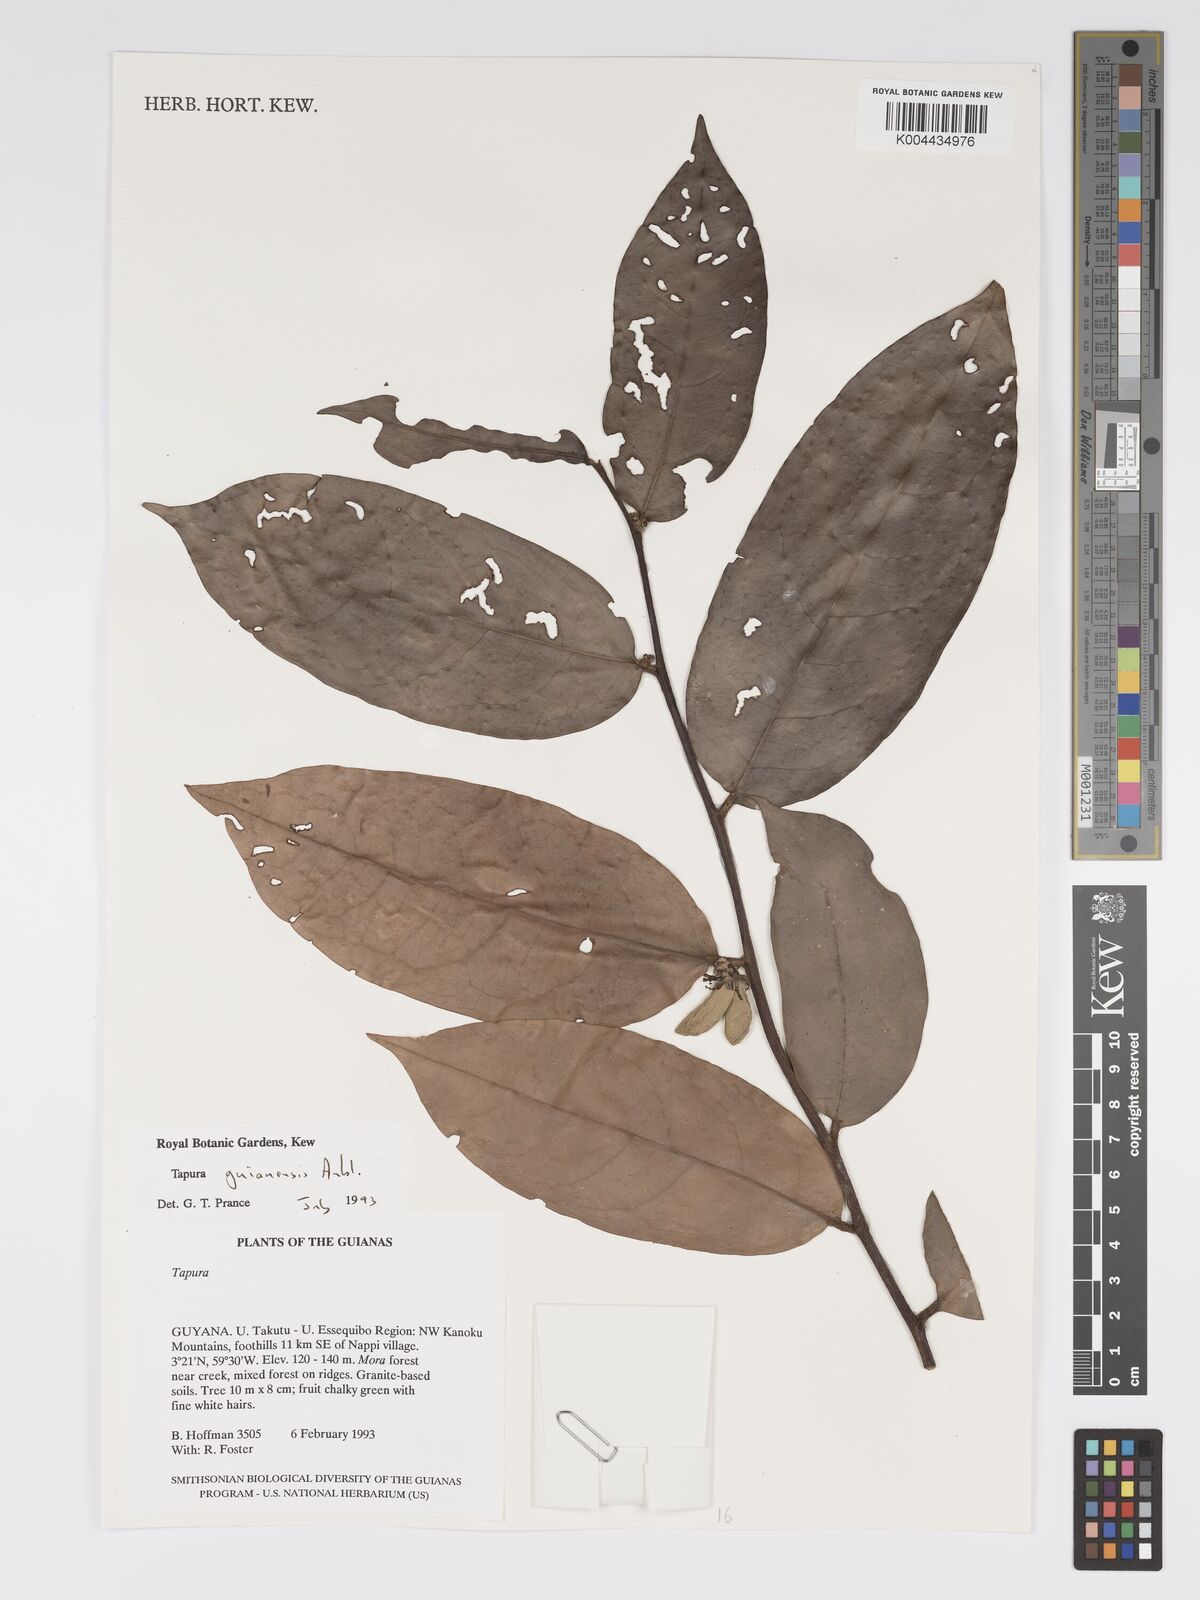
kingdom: Plantae
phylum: Tracheophyta
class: Magnoliopsida
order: Malpighiales
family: Dichapetalaceae
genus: Tapura
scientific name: Tapura guianensis
